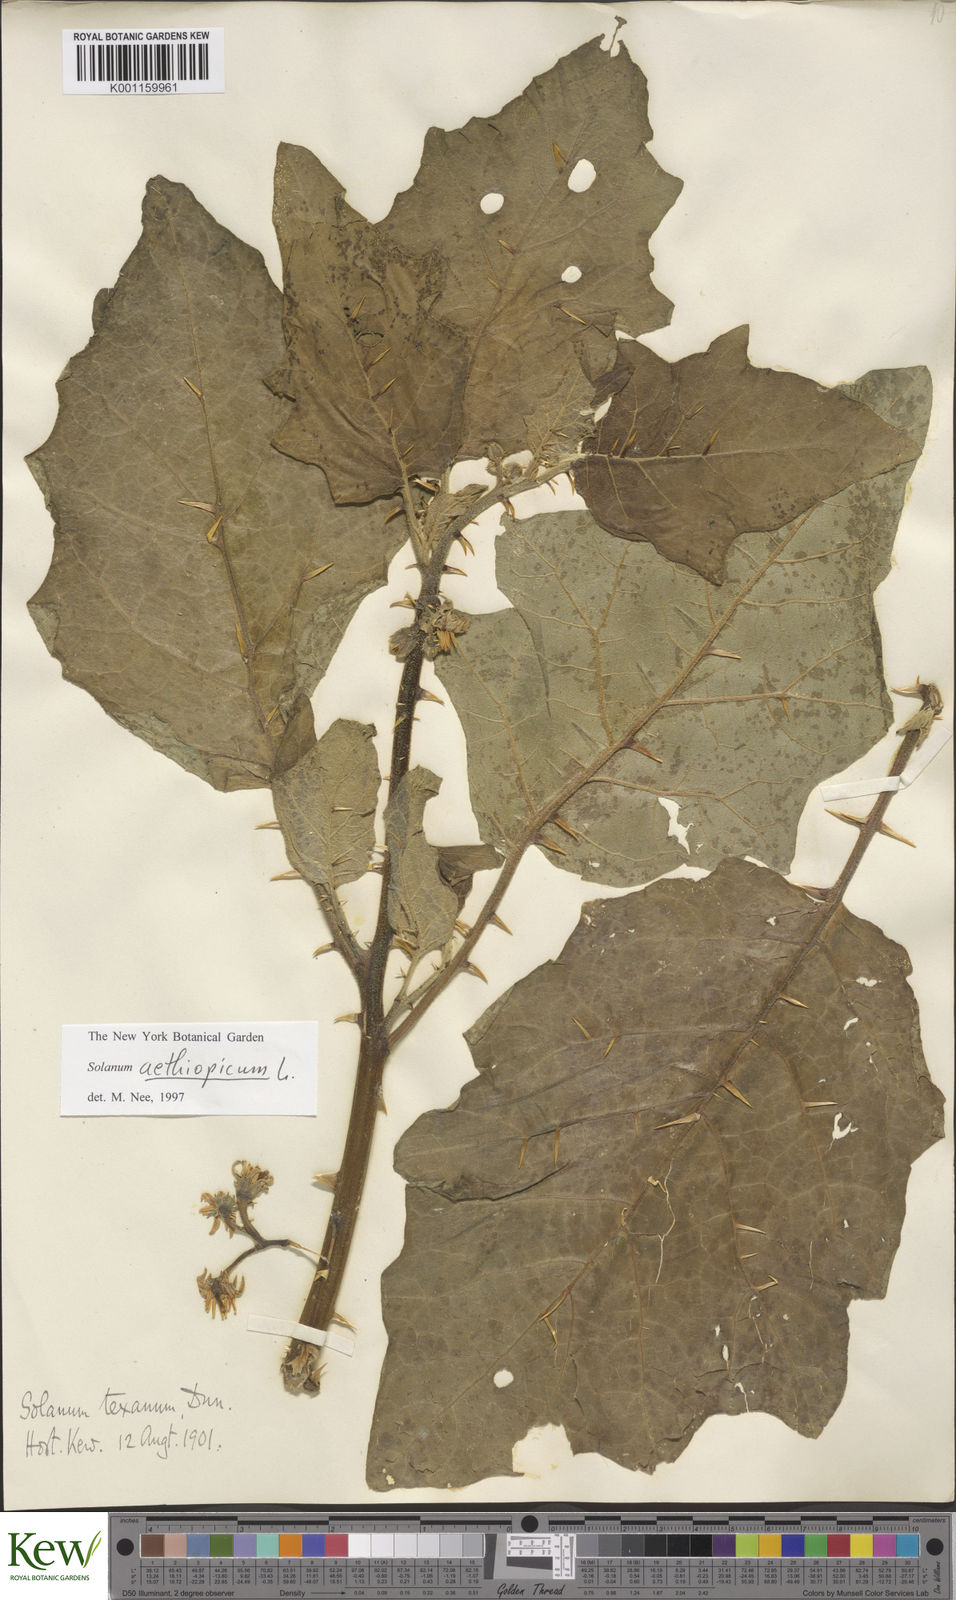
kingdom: Plantae
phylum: Tracheophyta
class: Magnoliopsida
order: Solanales
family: Solanaceae
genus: Solanum
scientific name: Solanum aethiopicum
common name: Gilo
